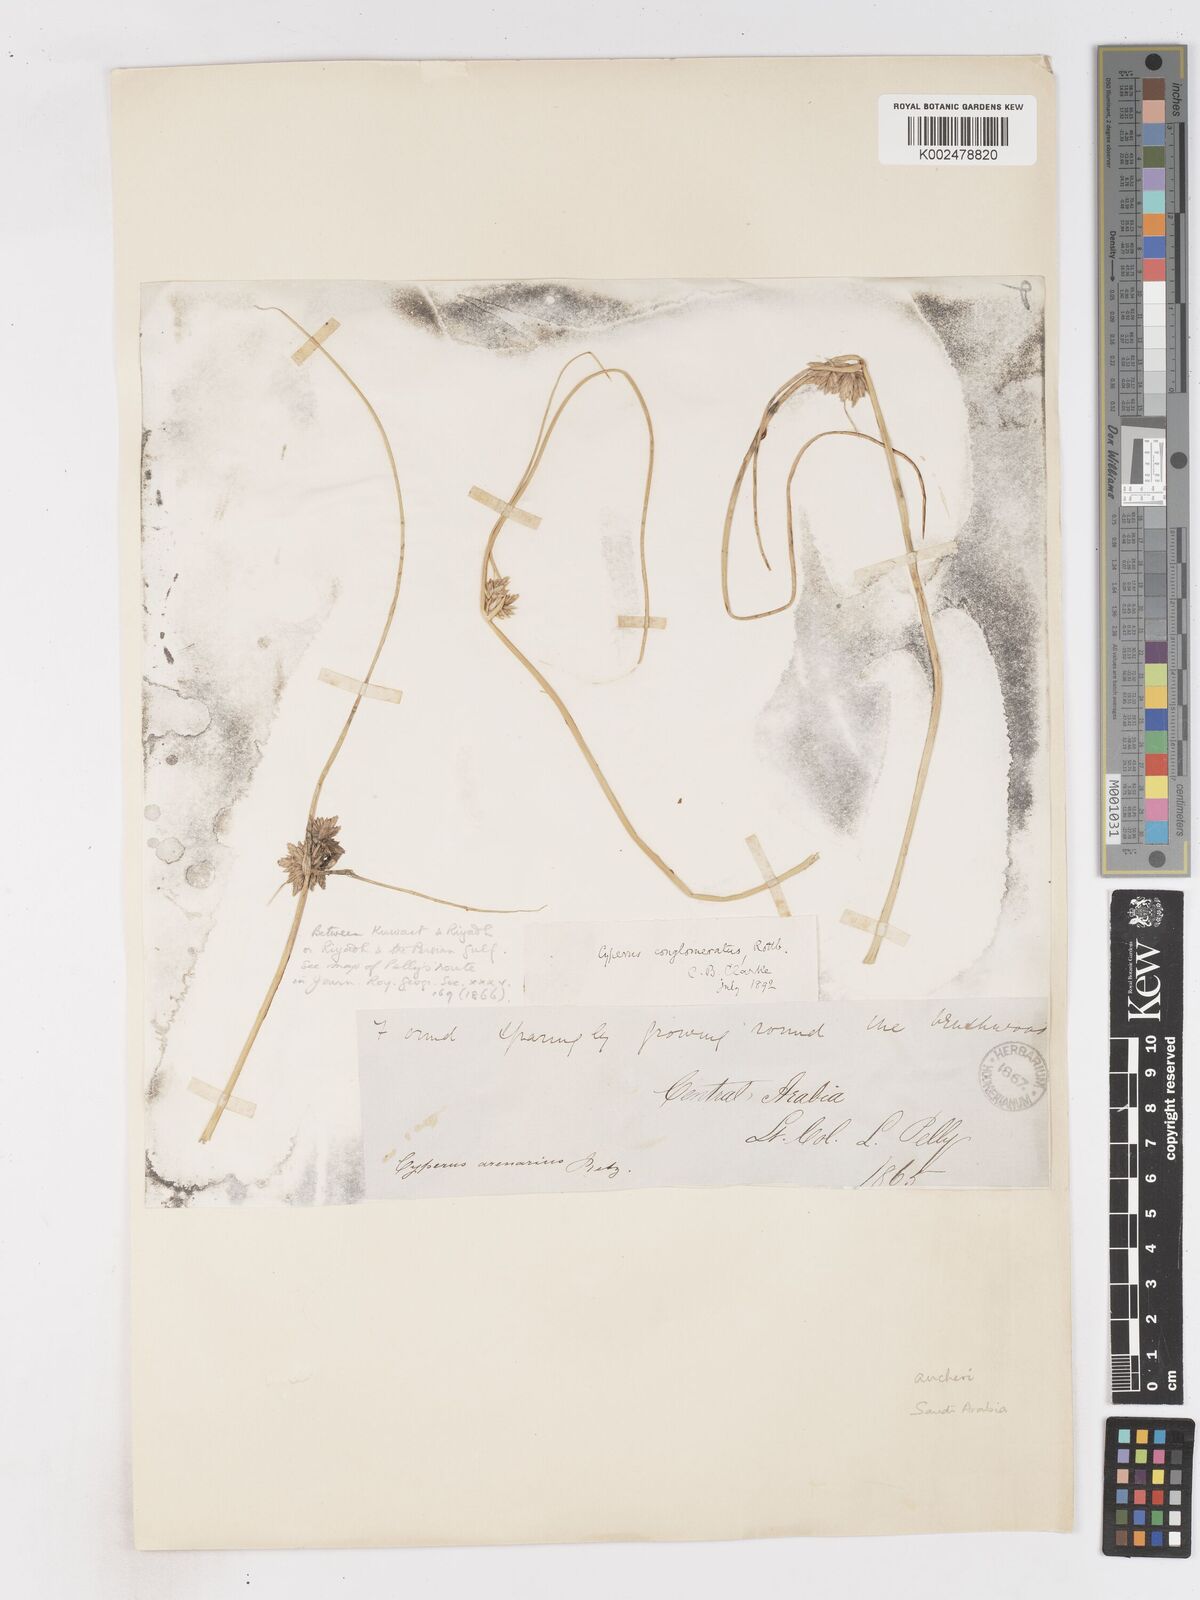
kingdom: Plantae
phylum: Tracheophyta
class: Liliopsida
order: Poales
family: Cyperaceae
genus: Cyperus
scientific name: Cyperus aucheri
